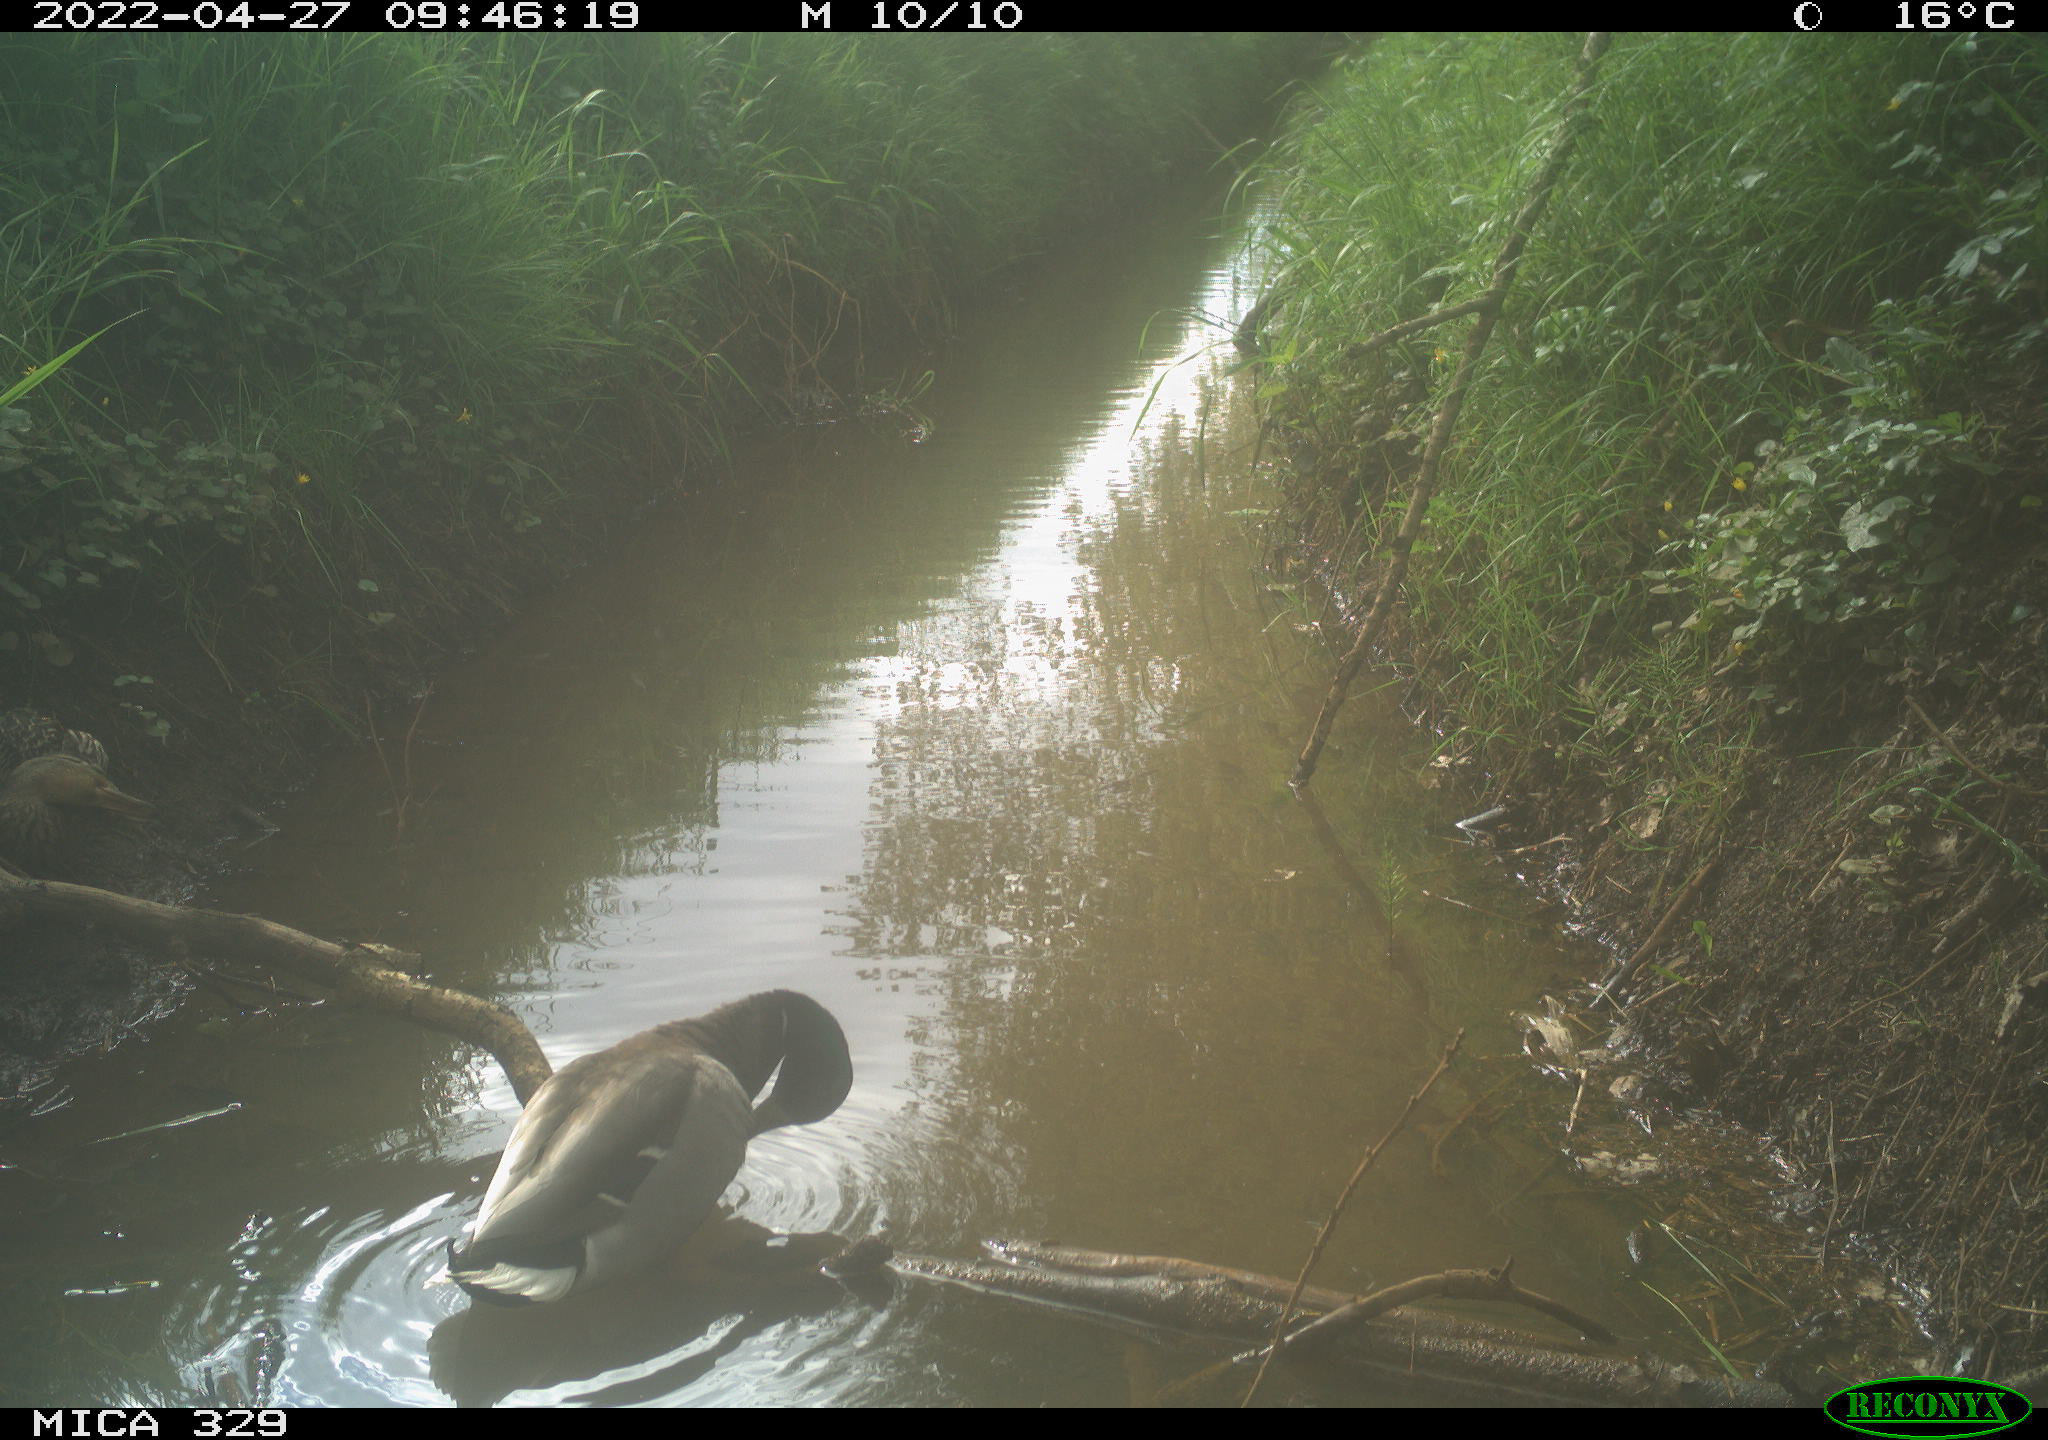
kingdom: Animalia
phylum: Chordata
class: Aves
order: Gruiformes
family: Rallidae
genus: Gallinula
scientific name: Gallinula chloropus
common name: Common moorhen
